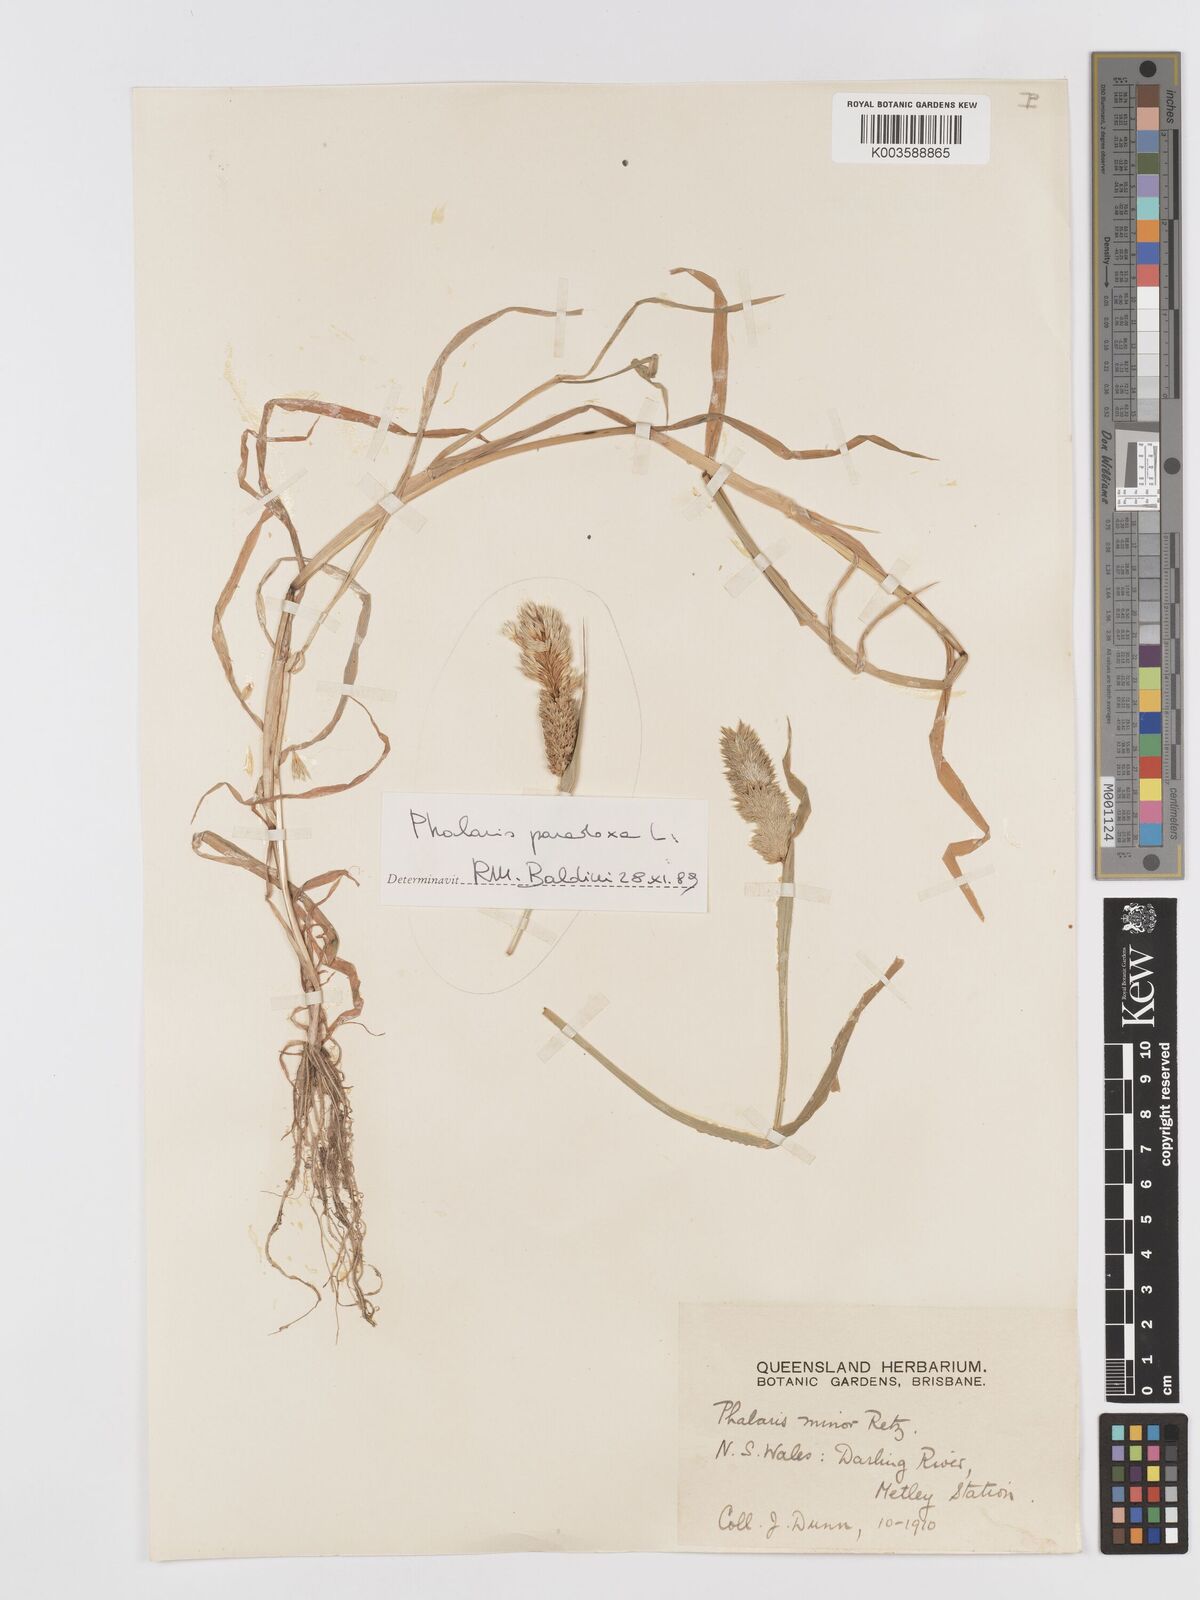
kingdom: Plantae
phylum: Tracheophyta
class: Liliopsida
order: Poales
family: Poaceae
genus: Phalaris
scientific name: Phalaris minor
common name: Littleseed canarygrass
